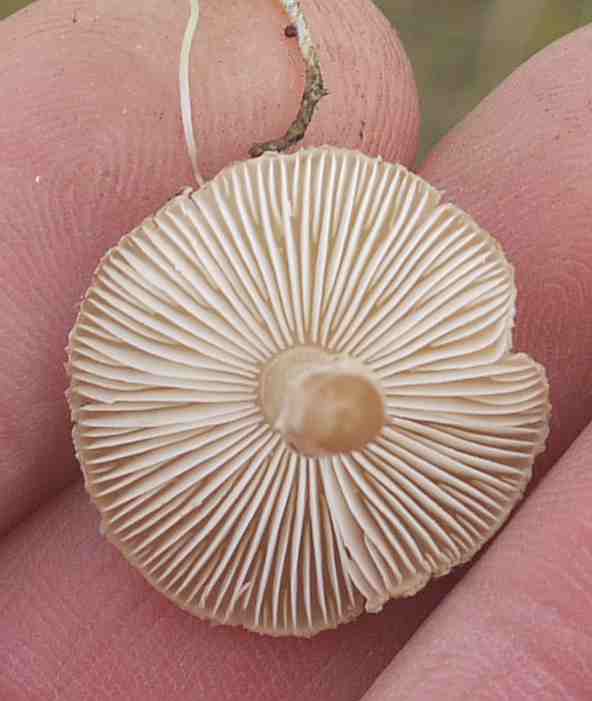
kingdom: Fungi
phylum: Basidiomycota
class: Agaricomycetes
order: Agaricales
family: Agaricaceae
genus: Lepiota
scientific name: Lepiota pseudolilacea
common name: gråbrun parasolhat
